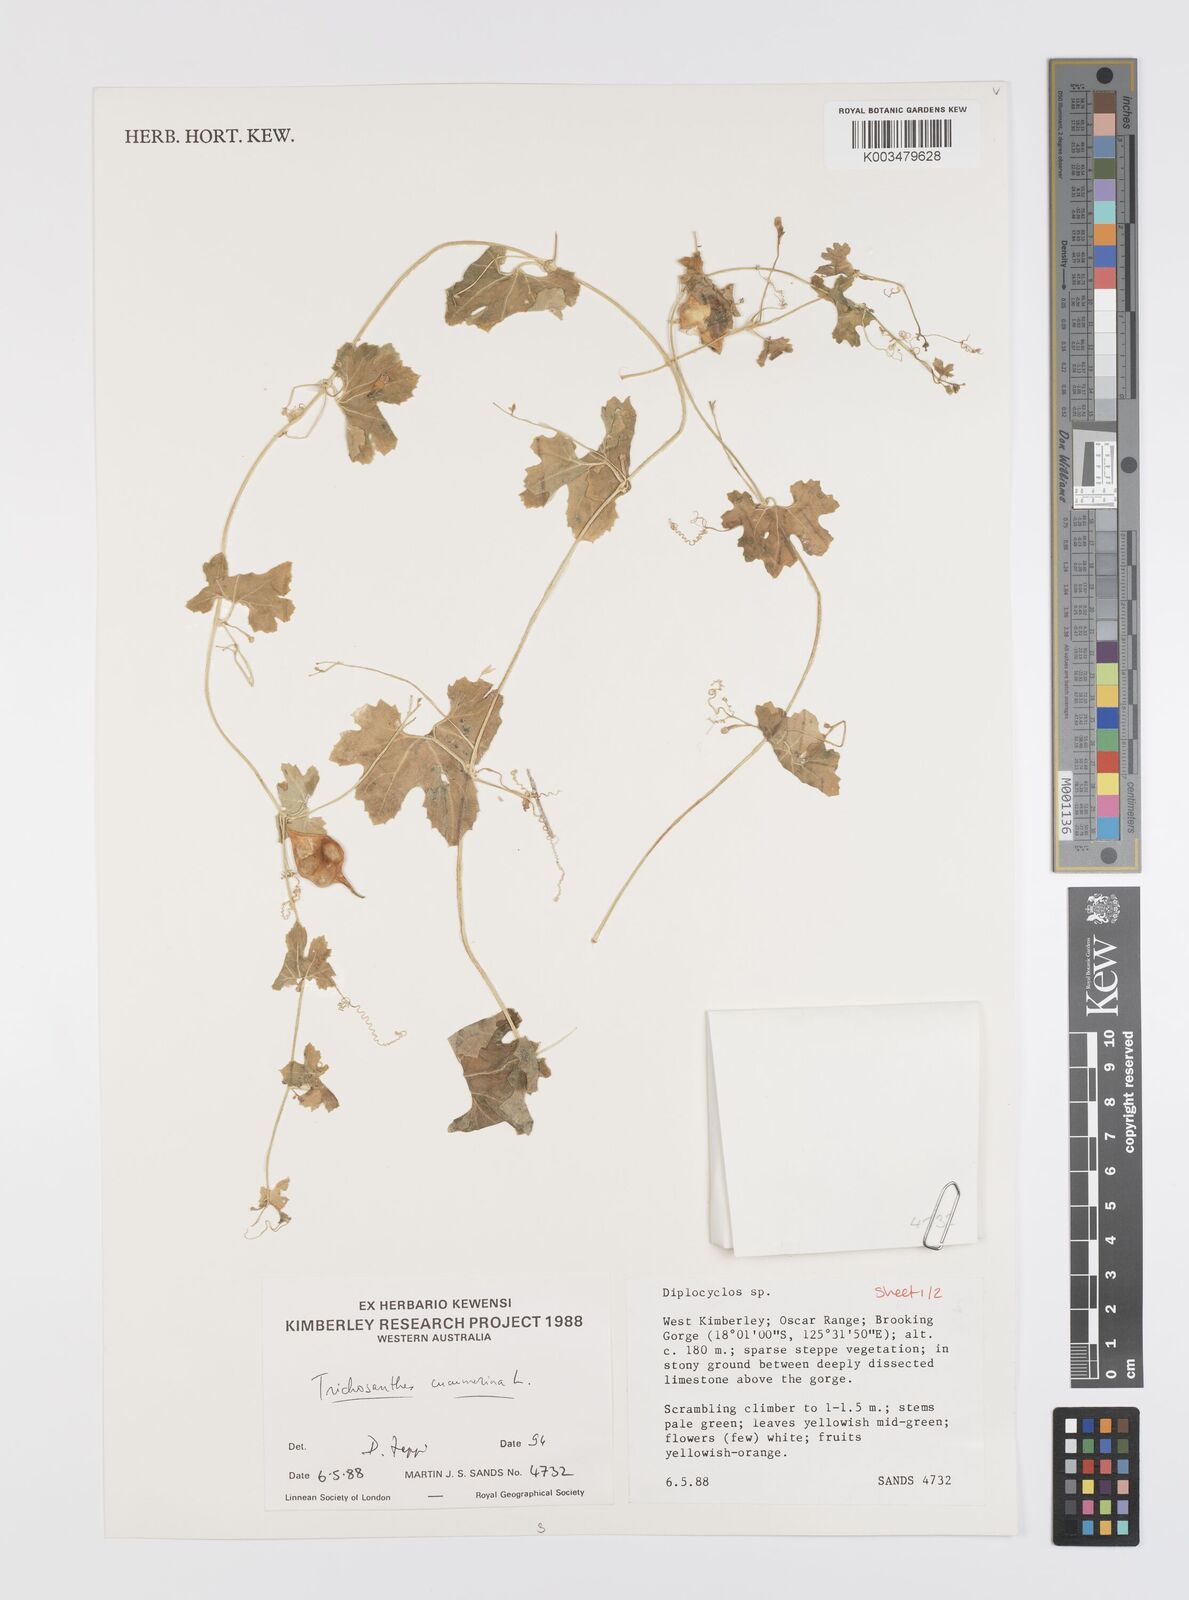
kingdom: Plantae
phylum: Tracheophyta
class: Magnoliopsida
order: Cucurbitales
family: Cucurbitaceae
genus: Trichosanthes
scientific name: Trichosanthes cucumerina
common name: Snakegourd
